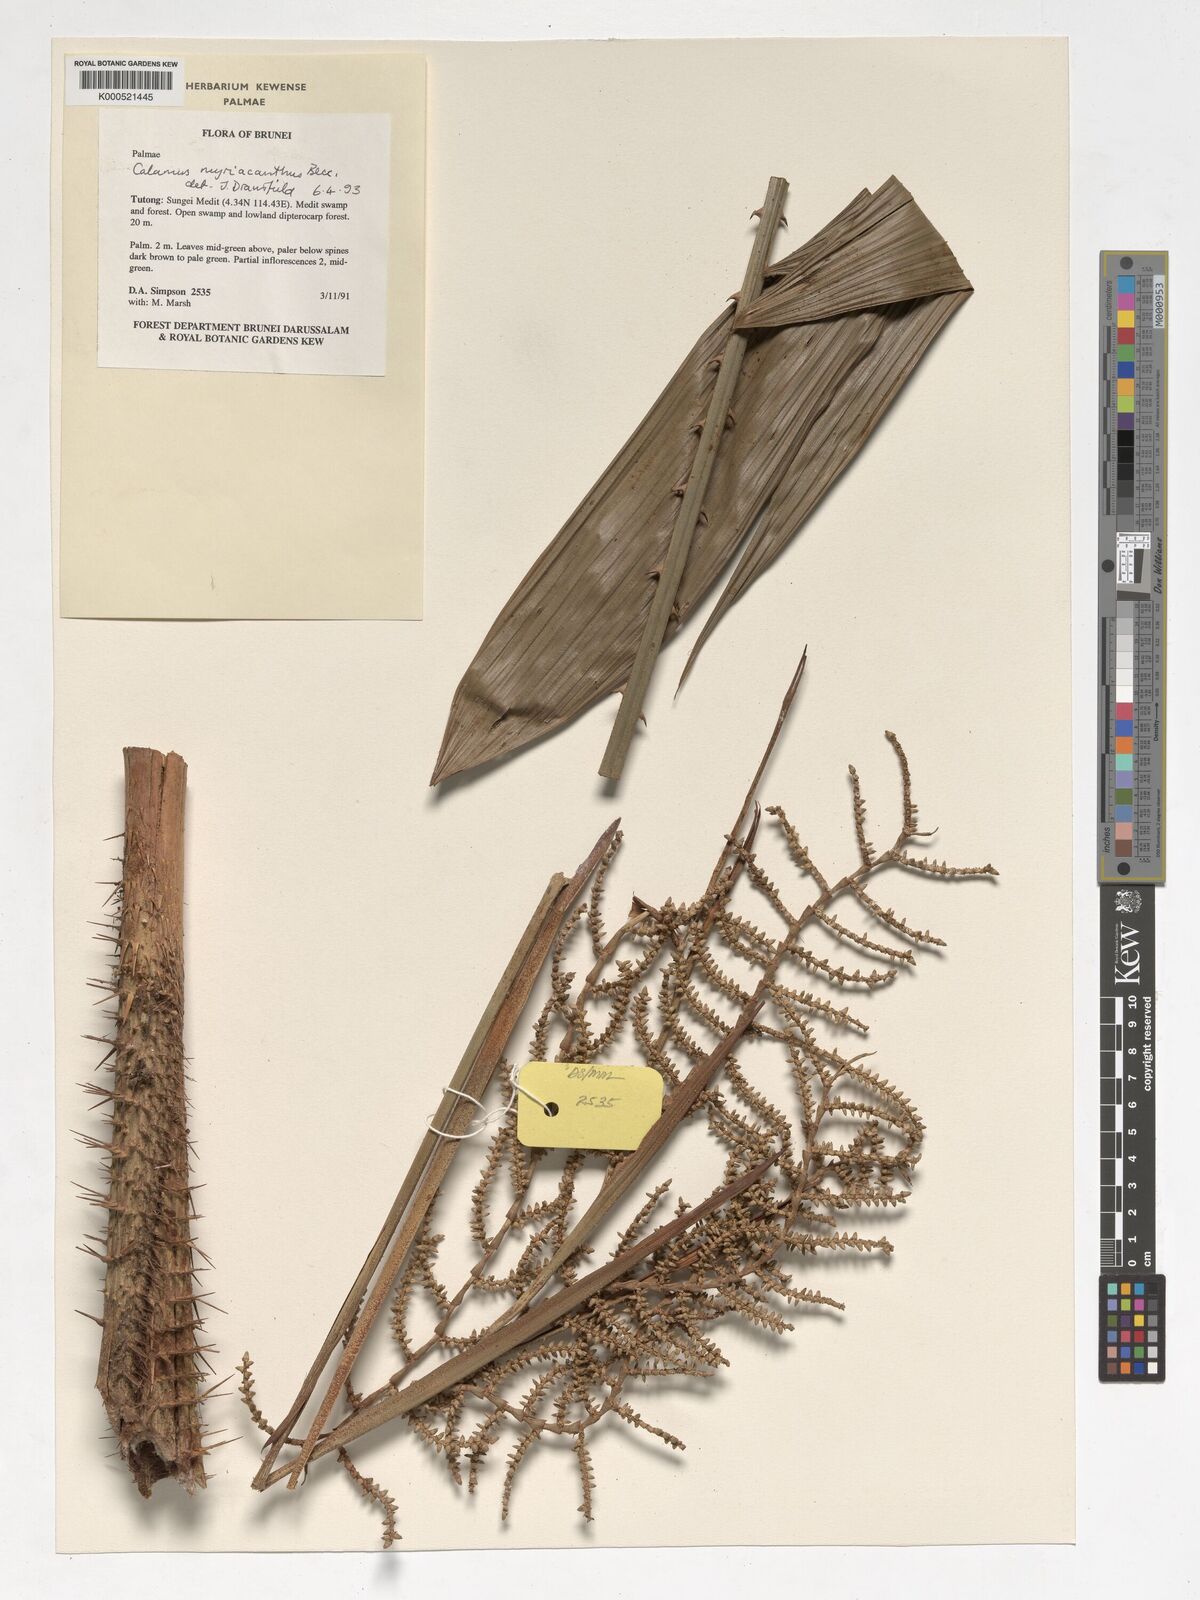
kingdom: Plantae
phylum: Tracheophyta
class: Liliopsida
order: Arecales
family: Arecaceae
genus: Calamus
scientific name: Calamus myriacanthus
